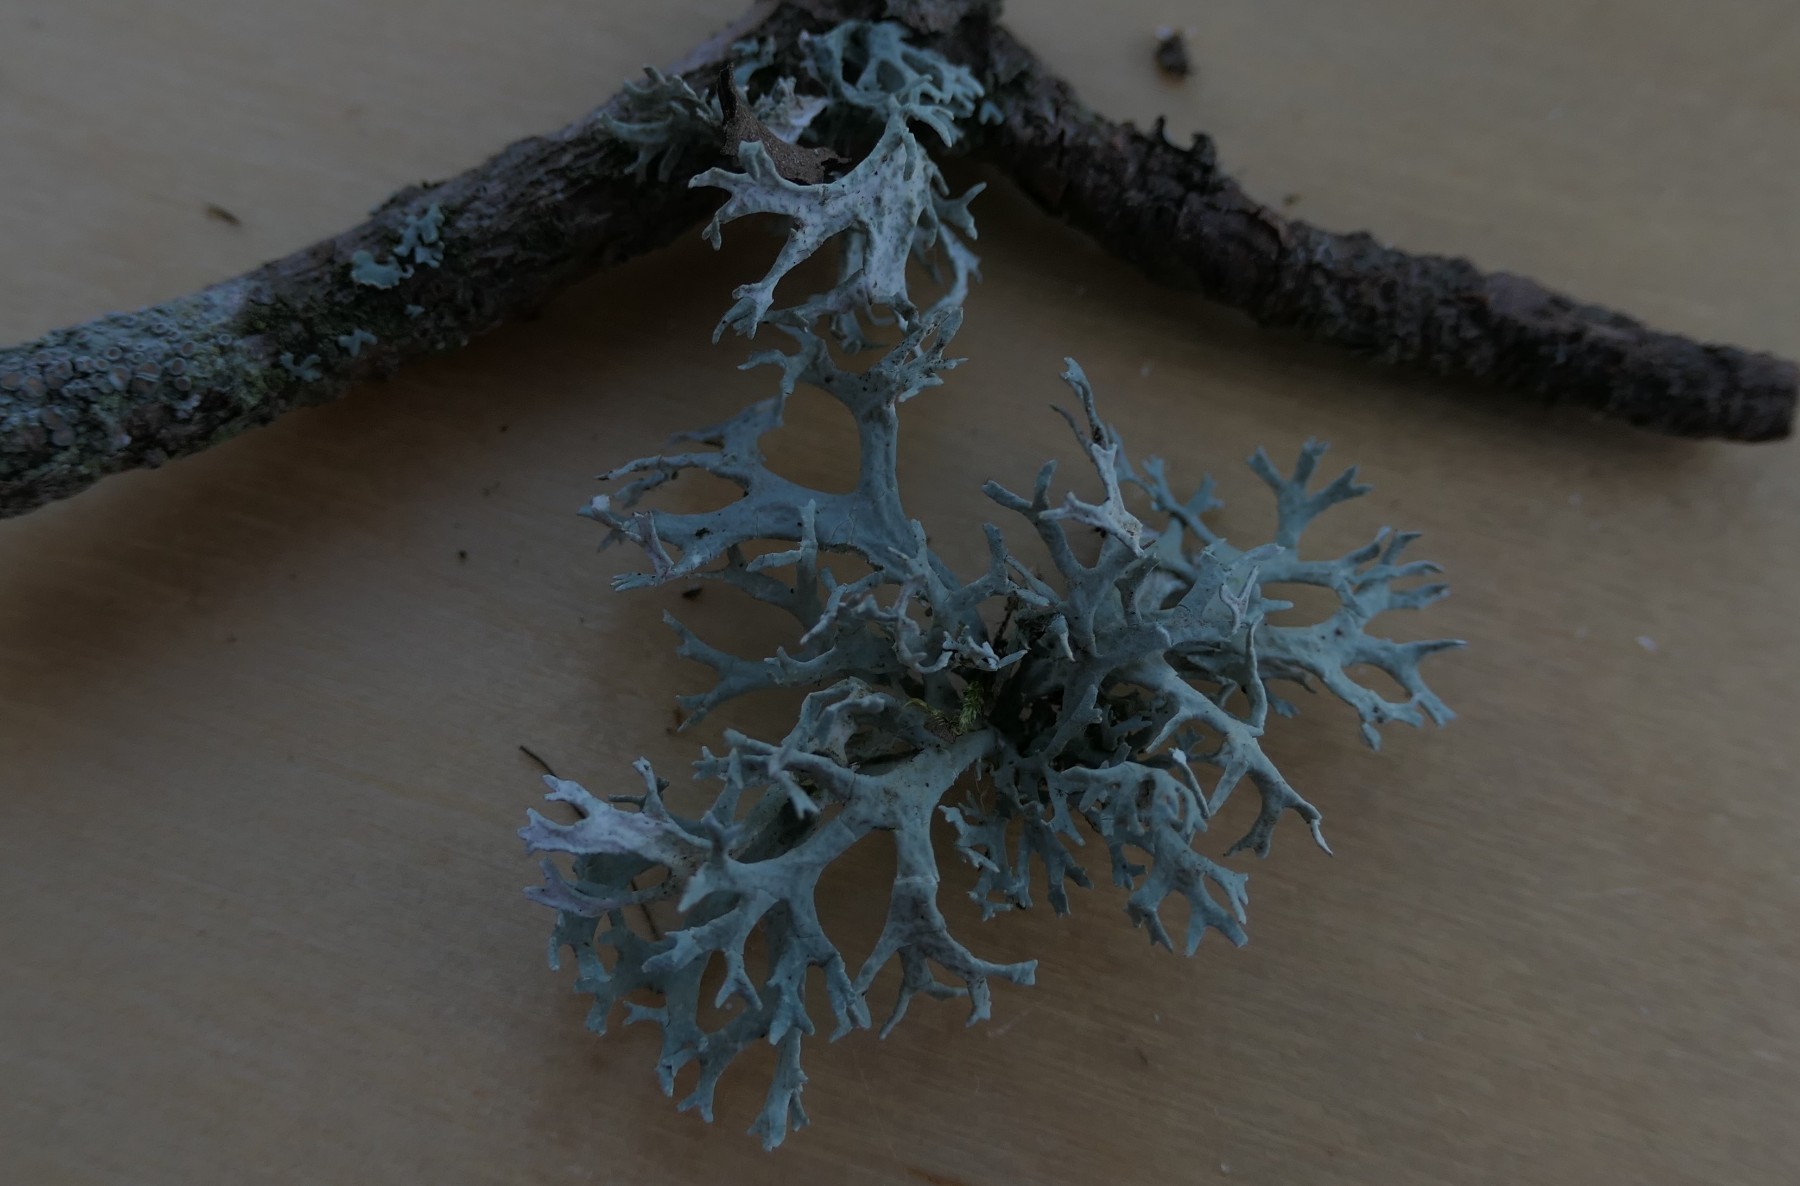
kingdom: Fungi
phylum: Ascomycota
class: Lecanoromycetes
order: Lecanorales
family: Parmeliaceae
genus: Evernia
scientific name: Evernia prunastri
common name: almindelig slåenlav
